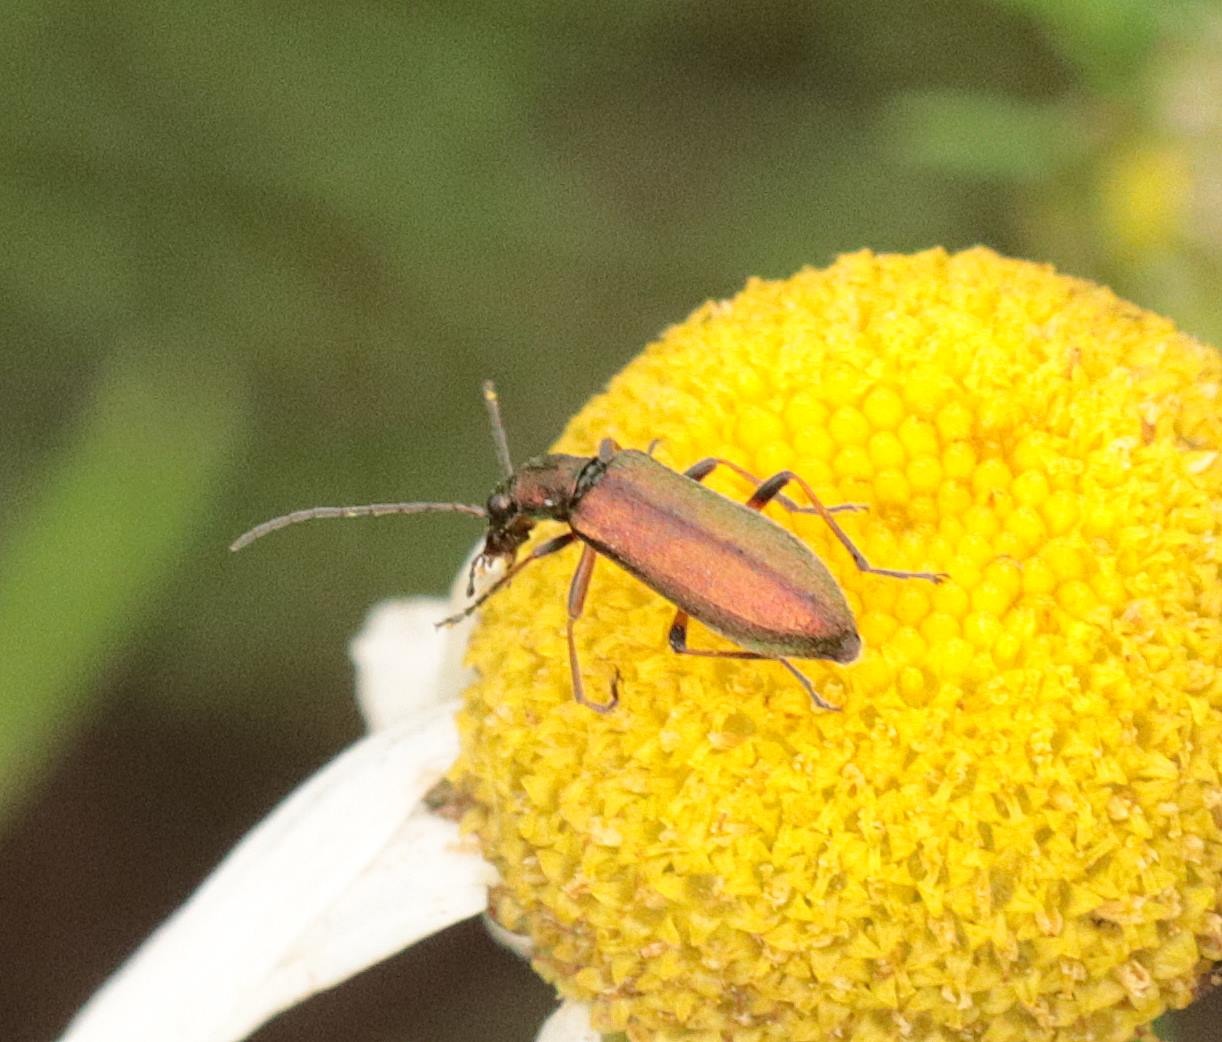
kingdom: Animalia
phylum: Arthropoda
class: Insecta
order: Coleoptera
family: Oedemeridae
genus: Chrysanthia
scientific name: Chrysanthia geniculata
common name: Grøn solbille
